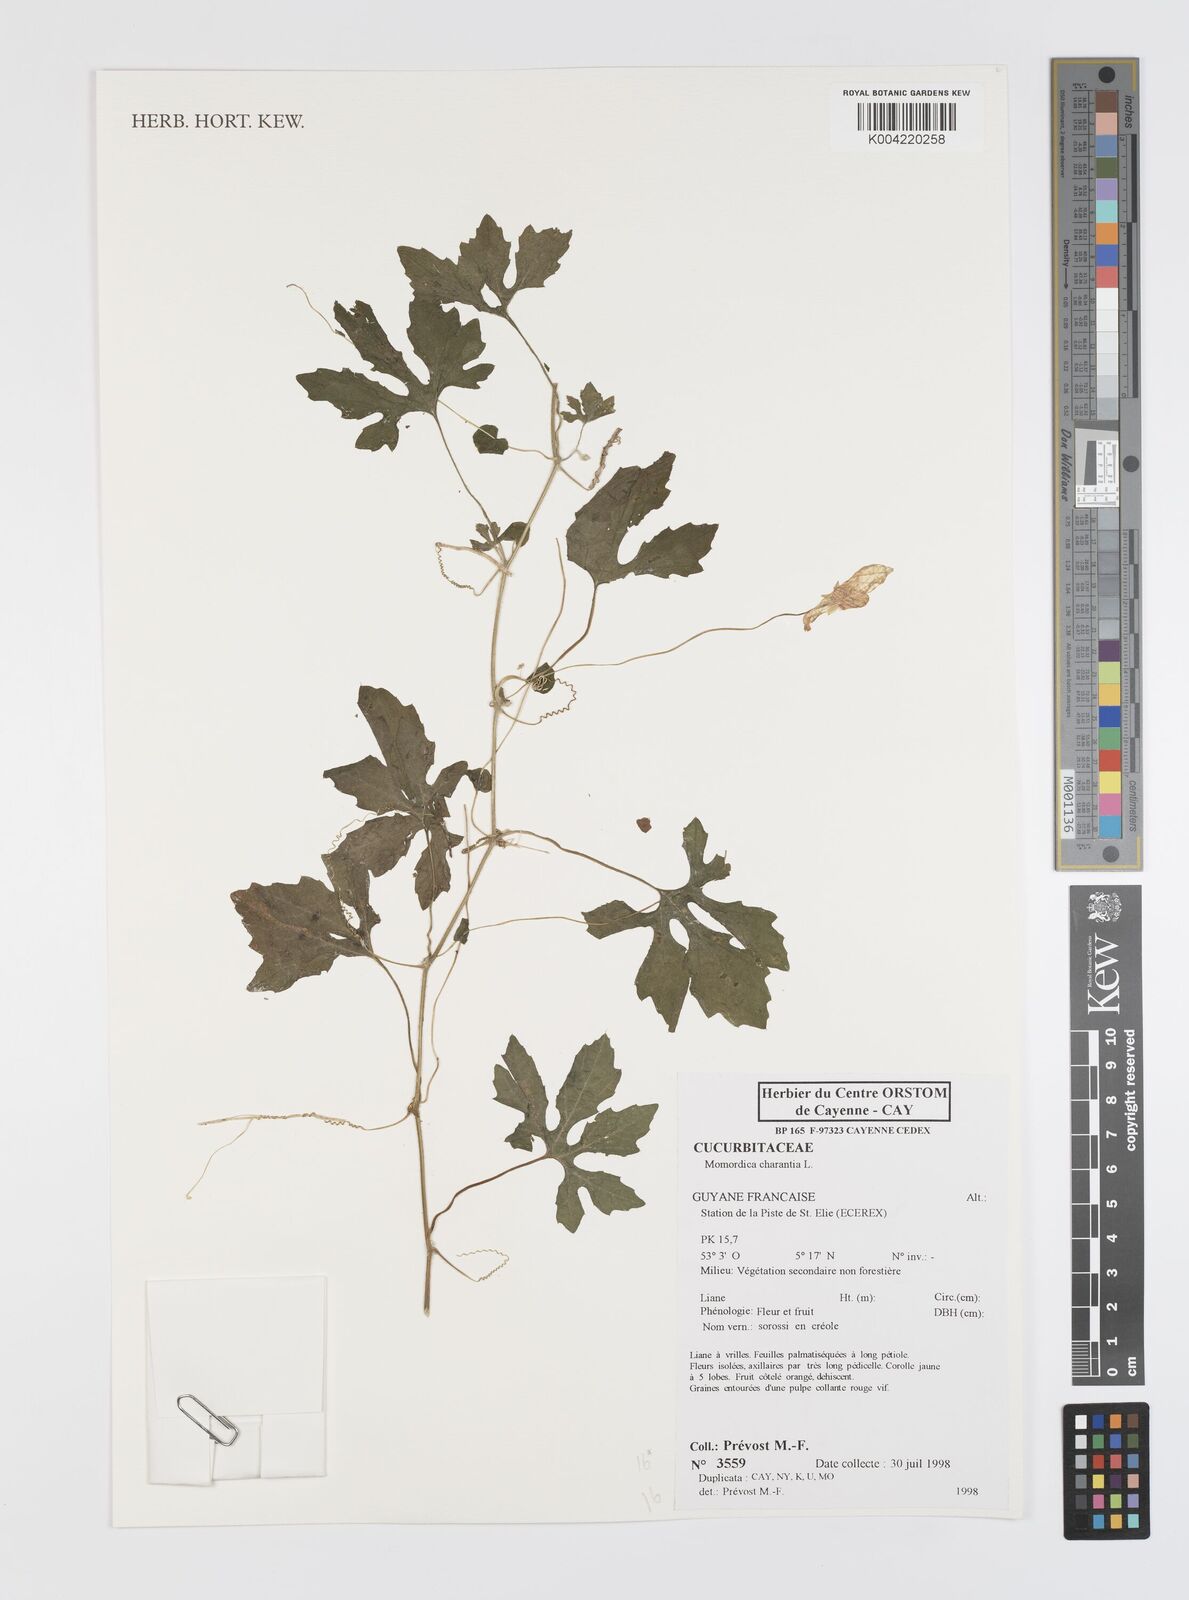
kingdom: Plantae
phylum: Tracheophyta
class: Magnoliopsida
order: Cucurbitales
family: Cucurbitaceae
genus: Momordica
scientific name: Momordica charantia
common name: Balsampear
